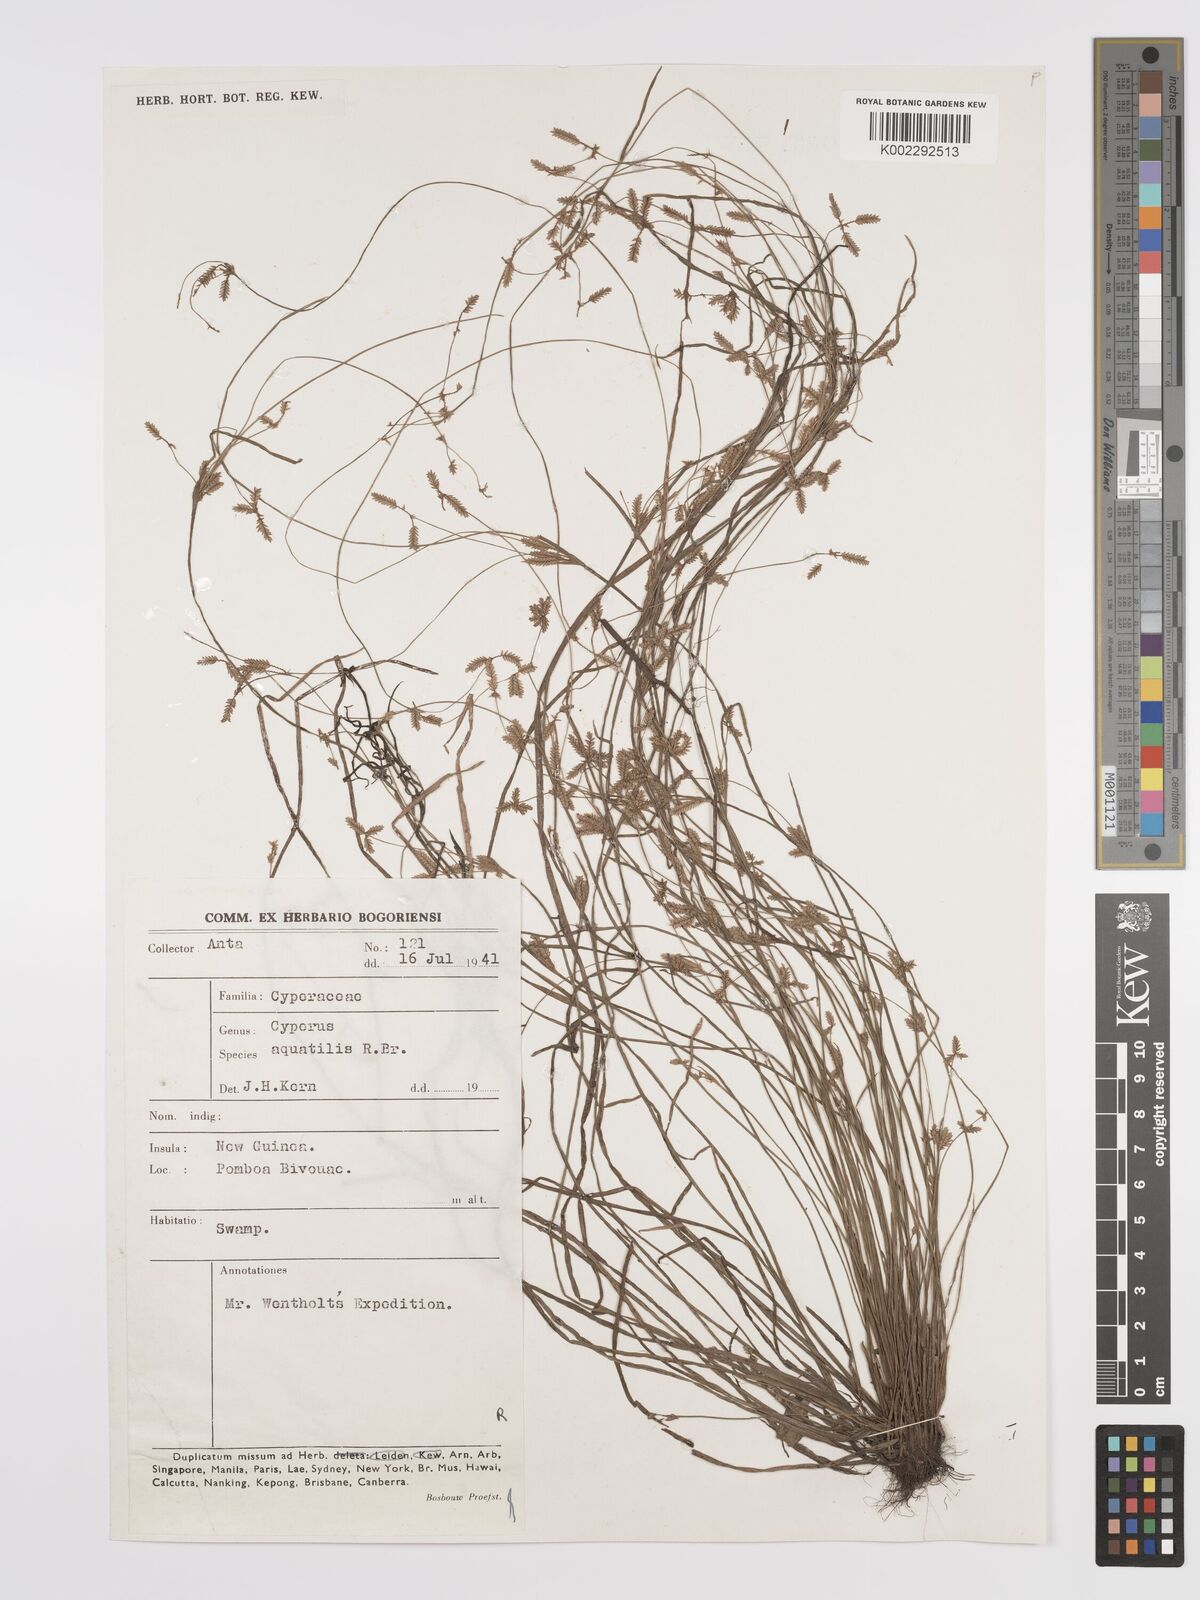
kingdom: Plantae
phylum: Tracheophyta
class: Liliopsida
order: Poales
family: Cyperaceae
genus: Cyperus
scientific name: Cyperus aquatilis
